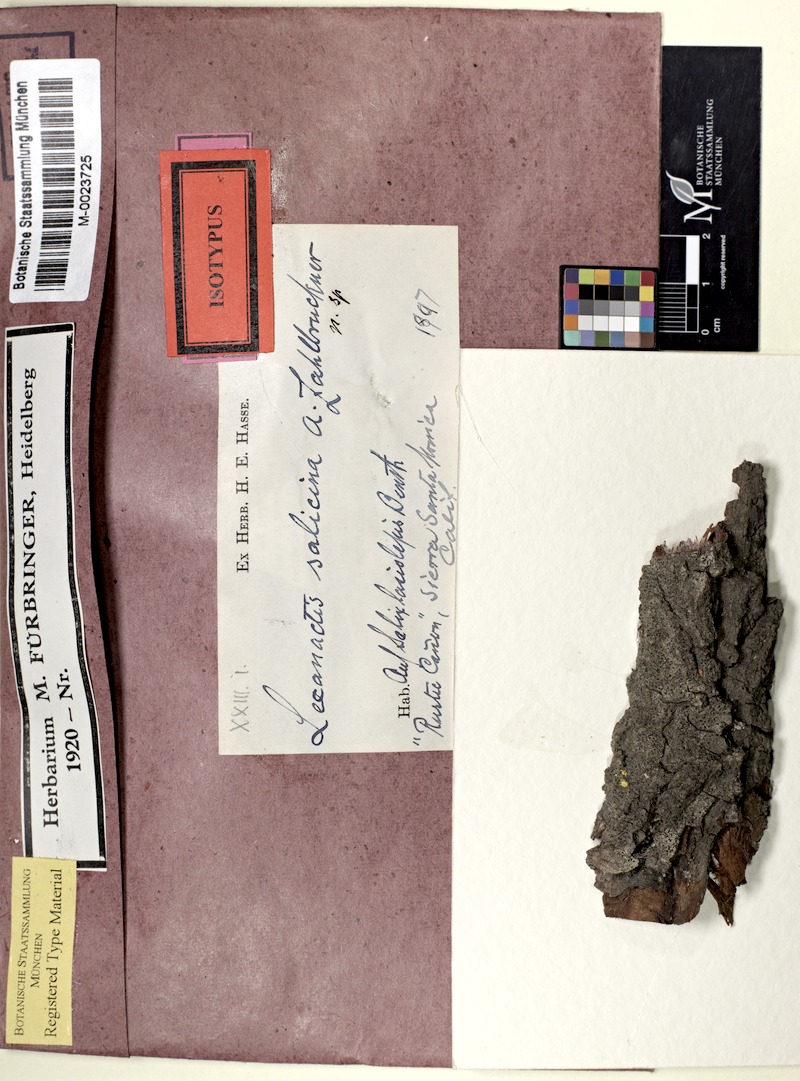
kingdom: Fungi
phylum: Ascomycota
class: Arthoniomycetes
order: Arthoniales
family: Roccellaceae
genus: Lecanactis
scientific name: Lecanactis salicina
